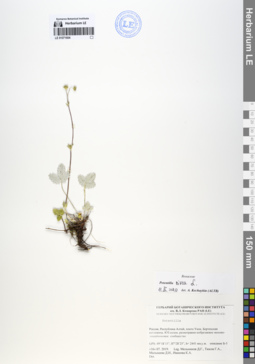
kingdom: Plantae
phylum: Tracheophyta
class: Magnoliopsida
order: Rosales
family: Rosaceae
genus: Potentilla
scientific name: Potentilla nivea
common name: Snow cinquefoil
